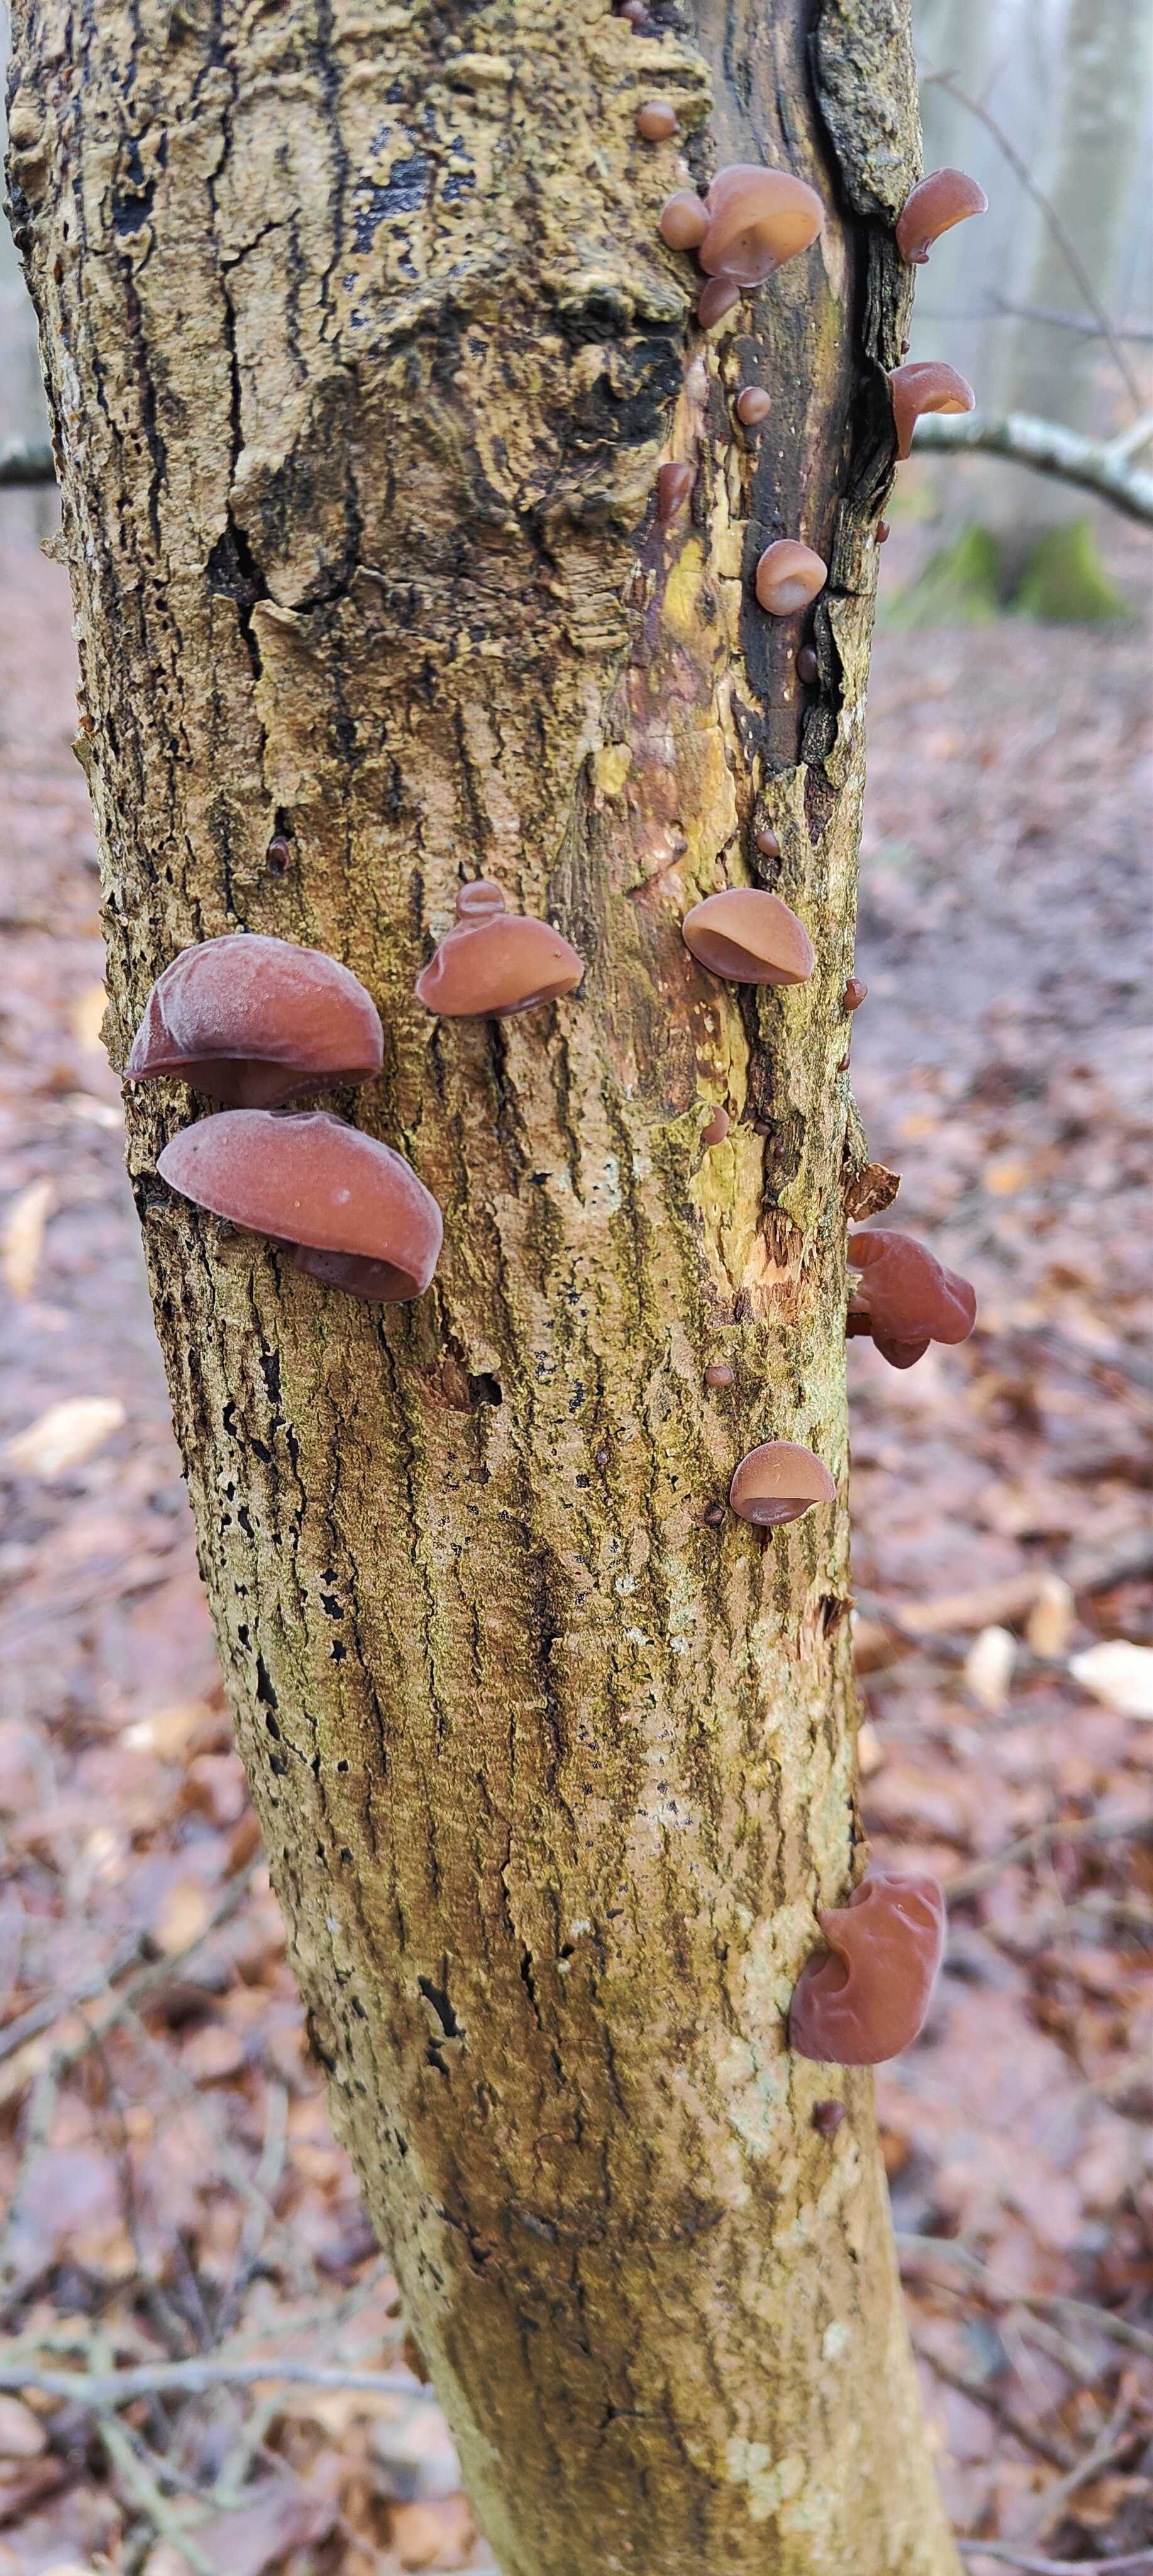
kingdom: Fungi
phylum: Basidiomycota
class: Agaricomycetes
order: Auriculariales
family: Auriculariaceae
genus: Auricularia
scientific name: Auricularia auricula-judae
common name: almindelig judasøre
